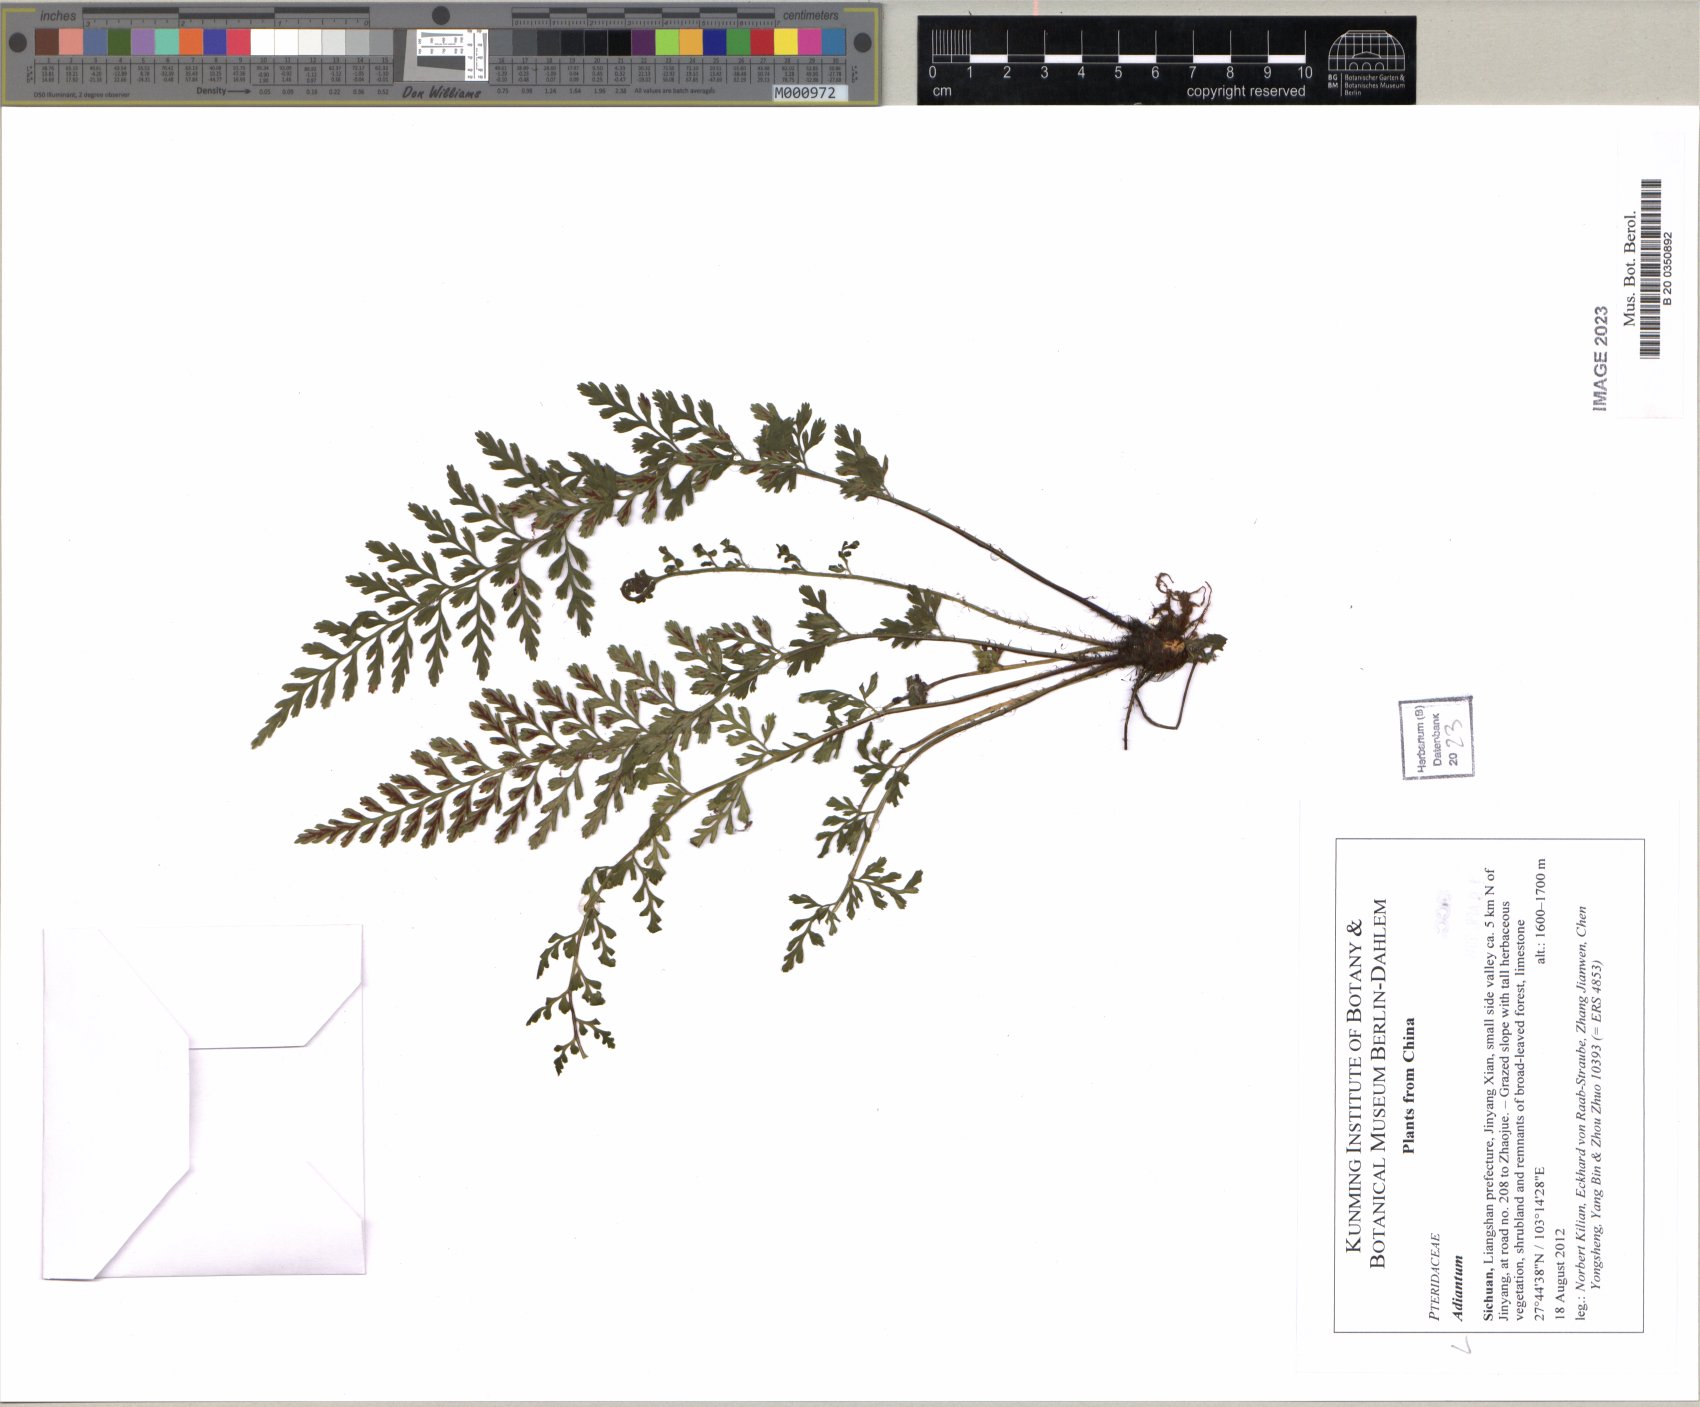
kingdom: Plantae
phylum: Tracheophyta
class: Polypodiopsida
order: Polypodiales
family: Pteridaceae
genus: Adiantum
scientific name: Adiantum
